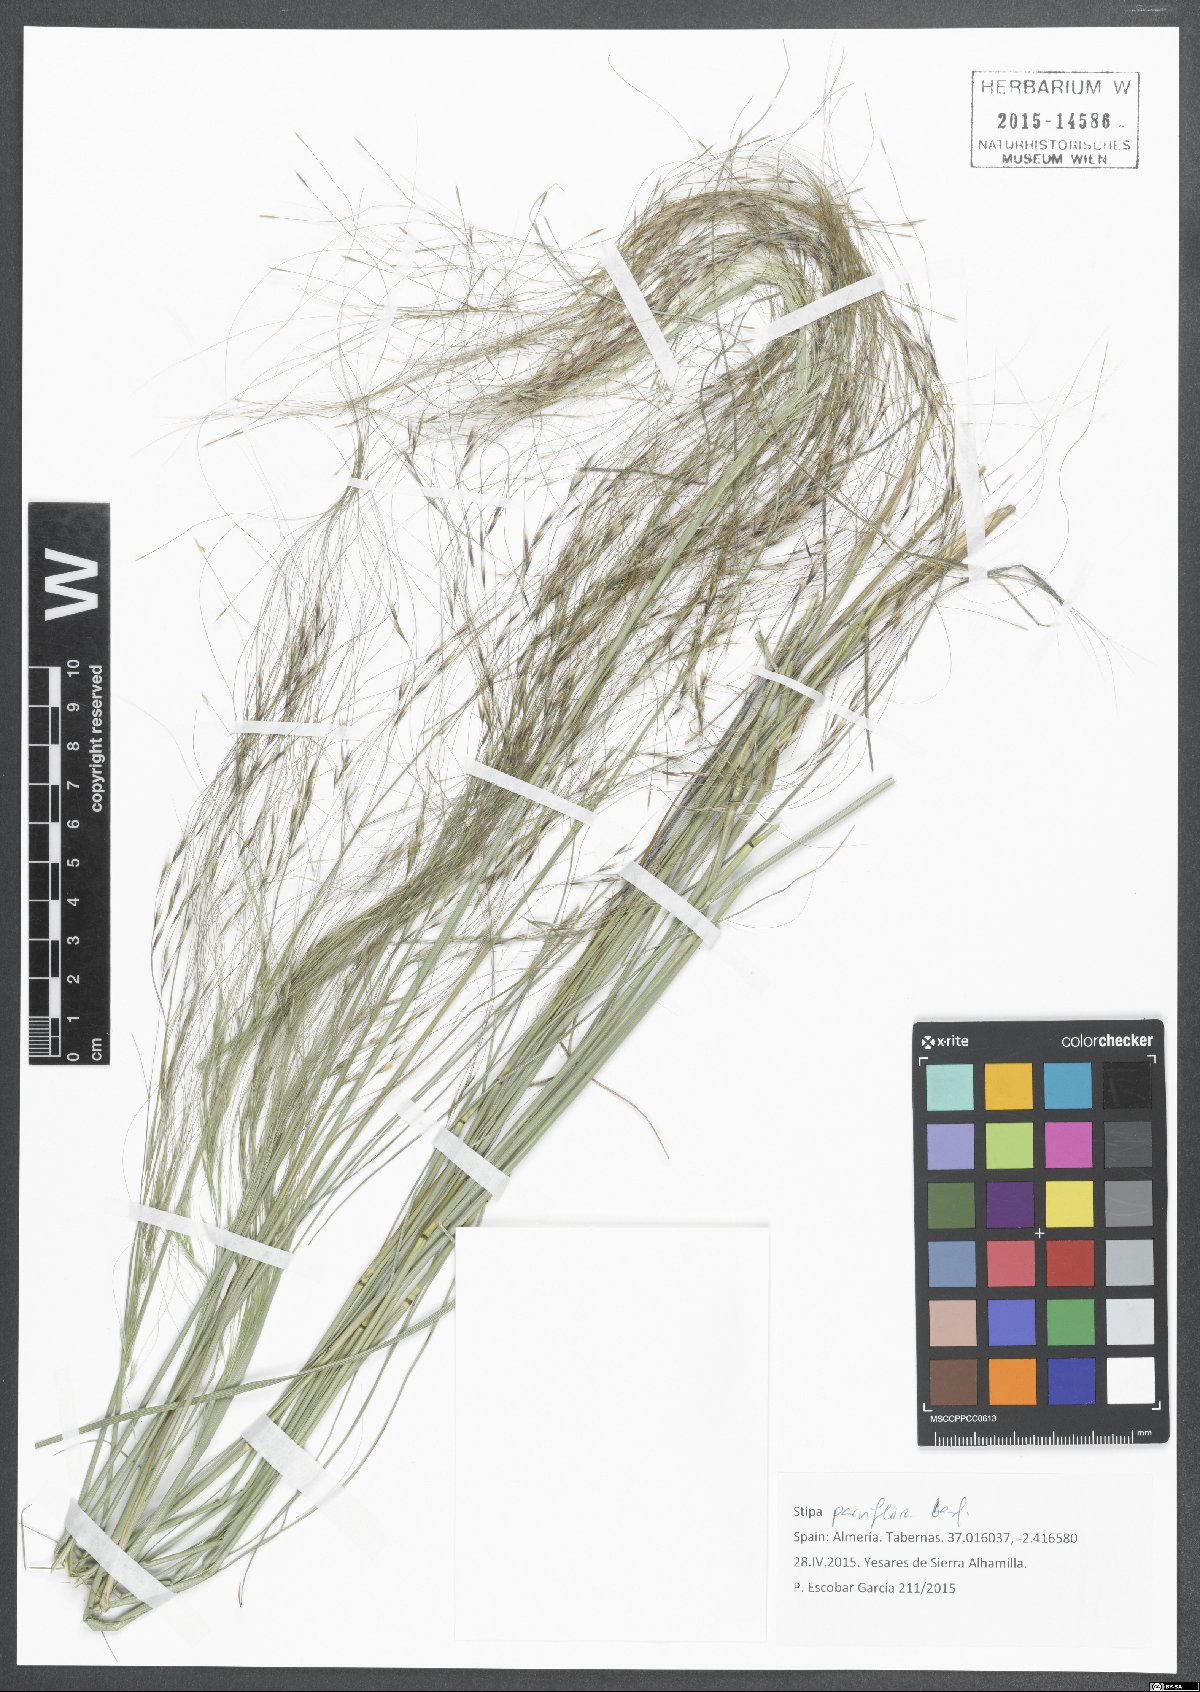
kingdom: Plantae
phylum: Tracheophyta
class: Liliopsida
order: Poales
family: Poaceae
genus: Achnatherum
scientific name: Achnatherum parviflorum
